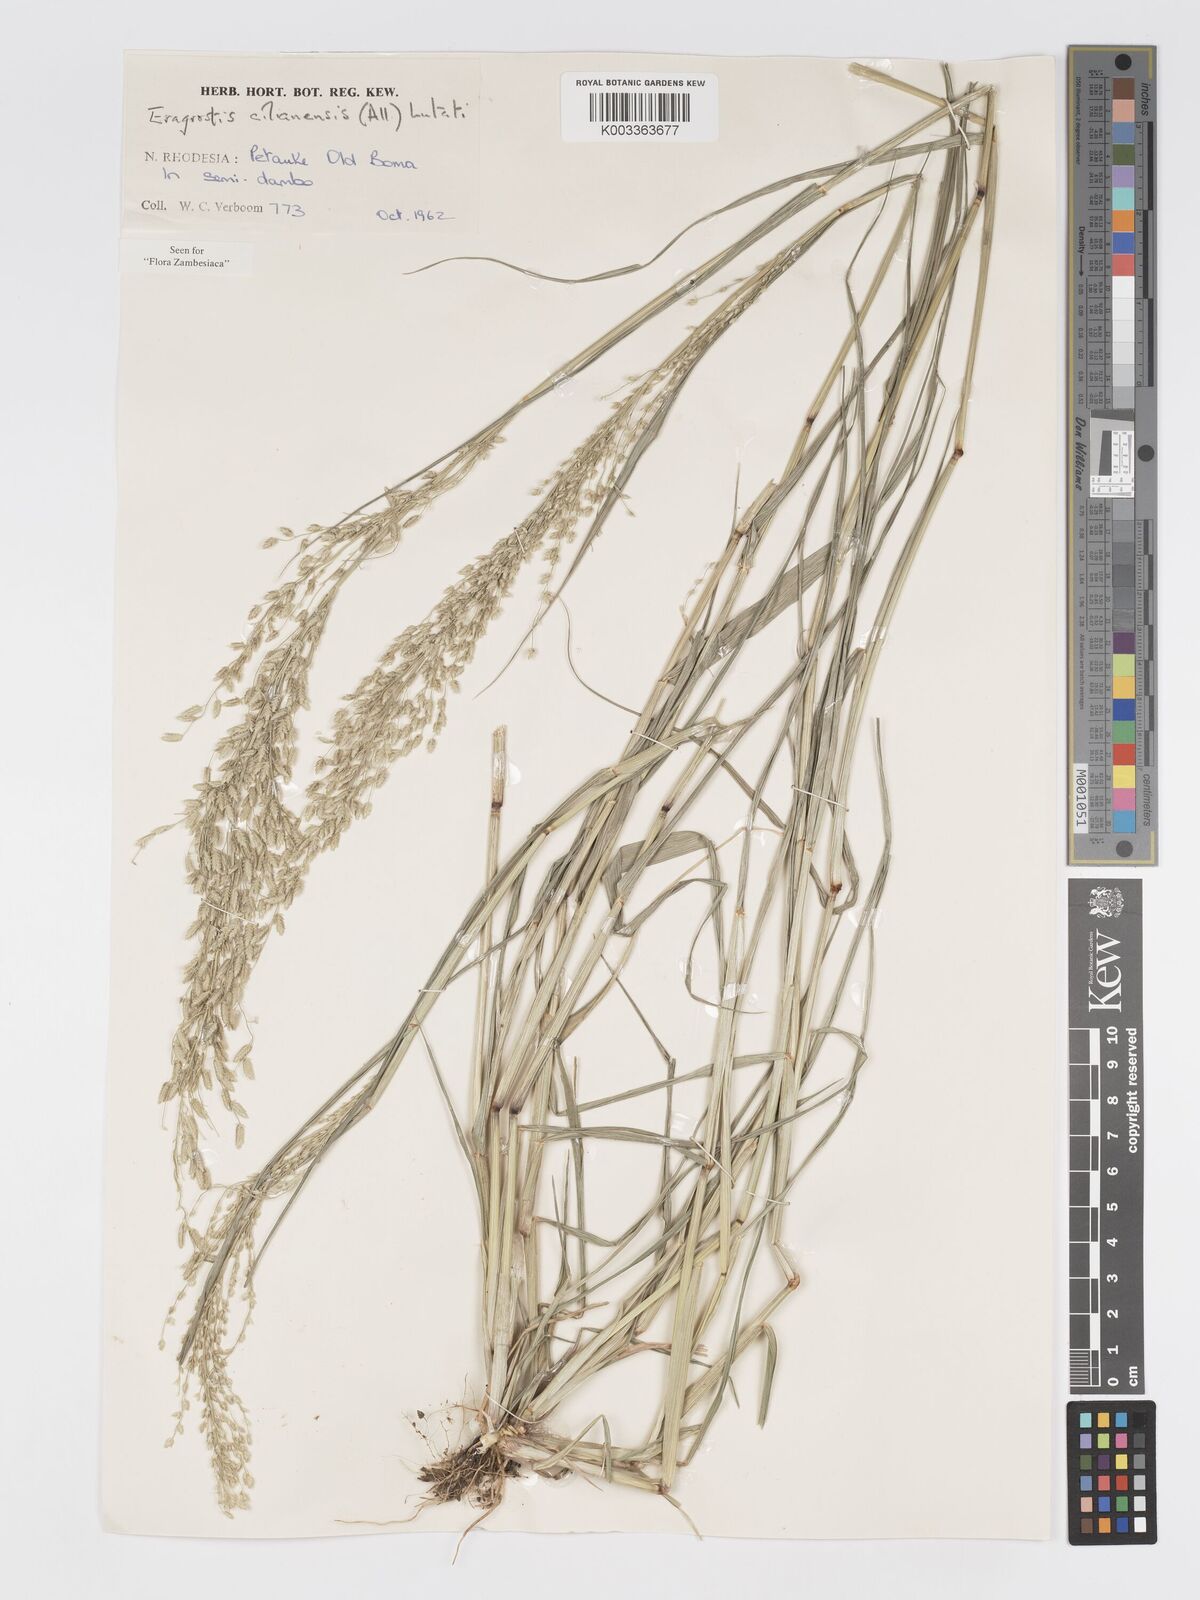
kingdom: Plantae
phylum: Tracheophyta
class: Liliopsida
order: Poales
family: Poaceae
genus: Eragrostis
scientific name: Eragrostis cilianensis
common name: Stinkgrass
